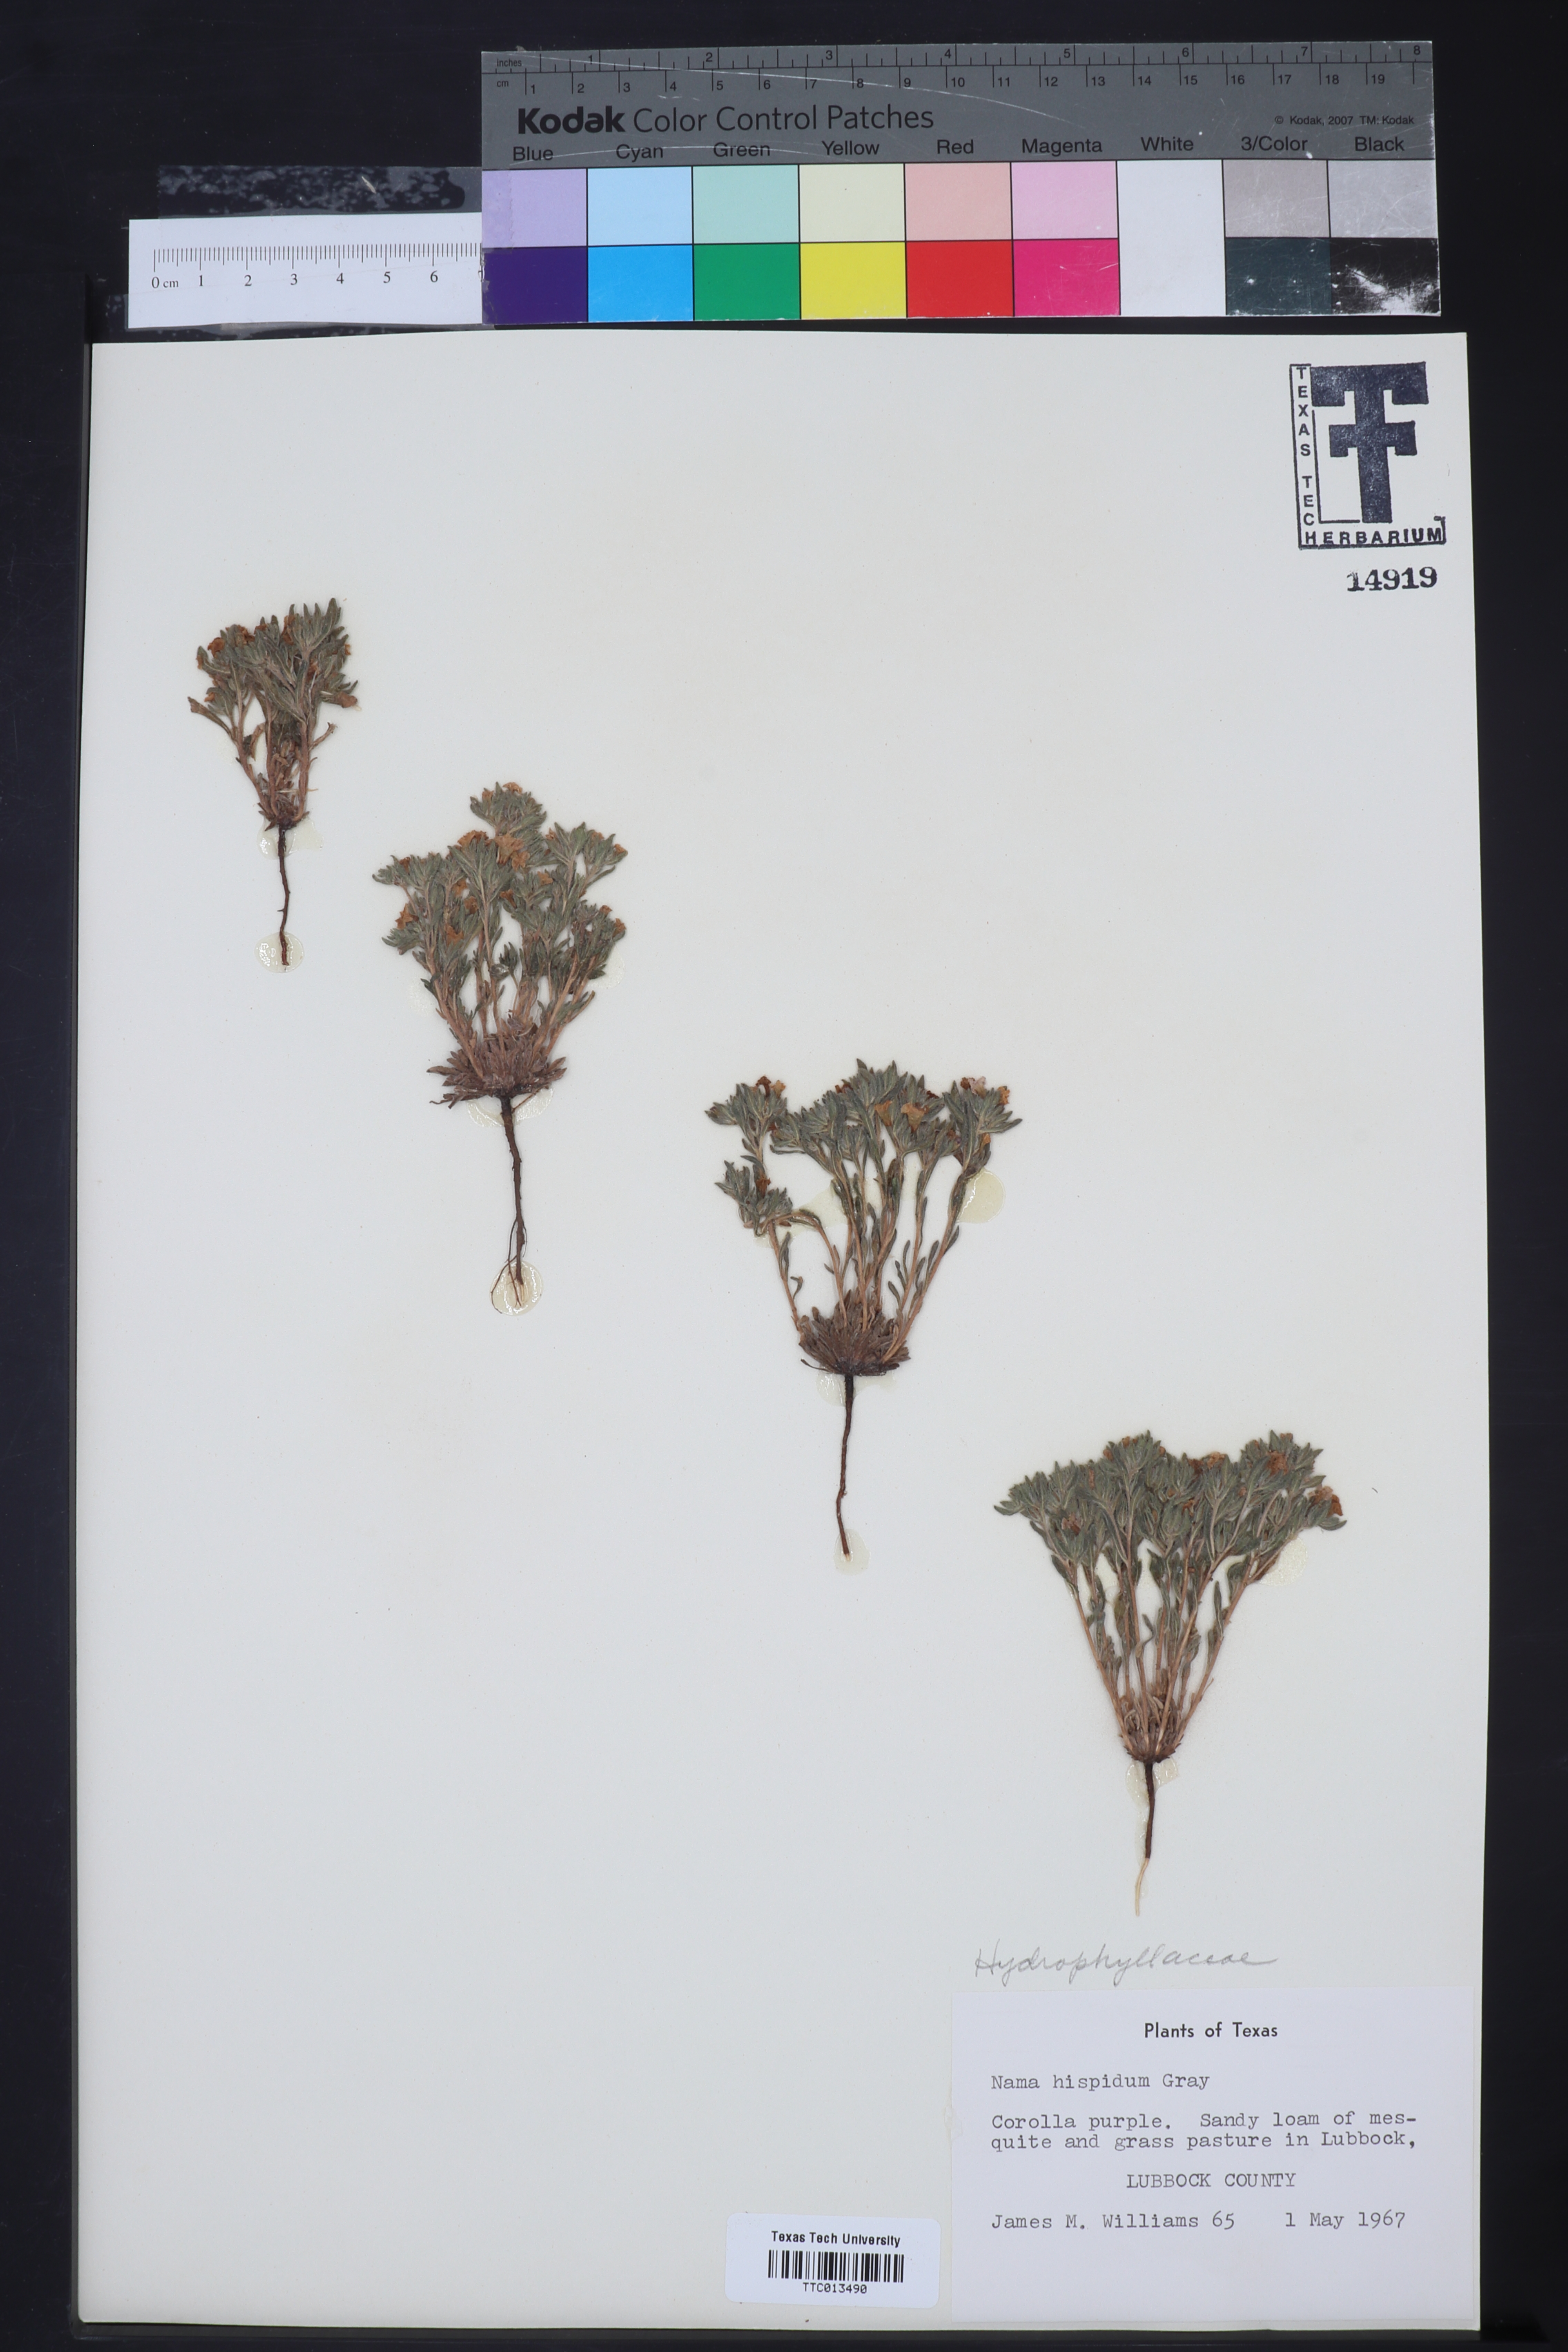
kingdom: Plantae
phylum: Tracheophyta
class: Magnoliopsida
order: Boraginales
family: Namaceae
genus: Nama
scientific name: Nama hispida
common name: Bristly nama
